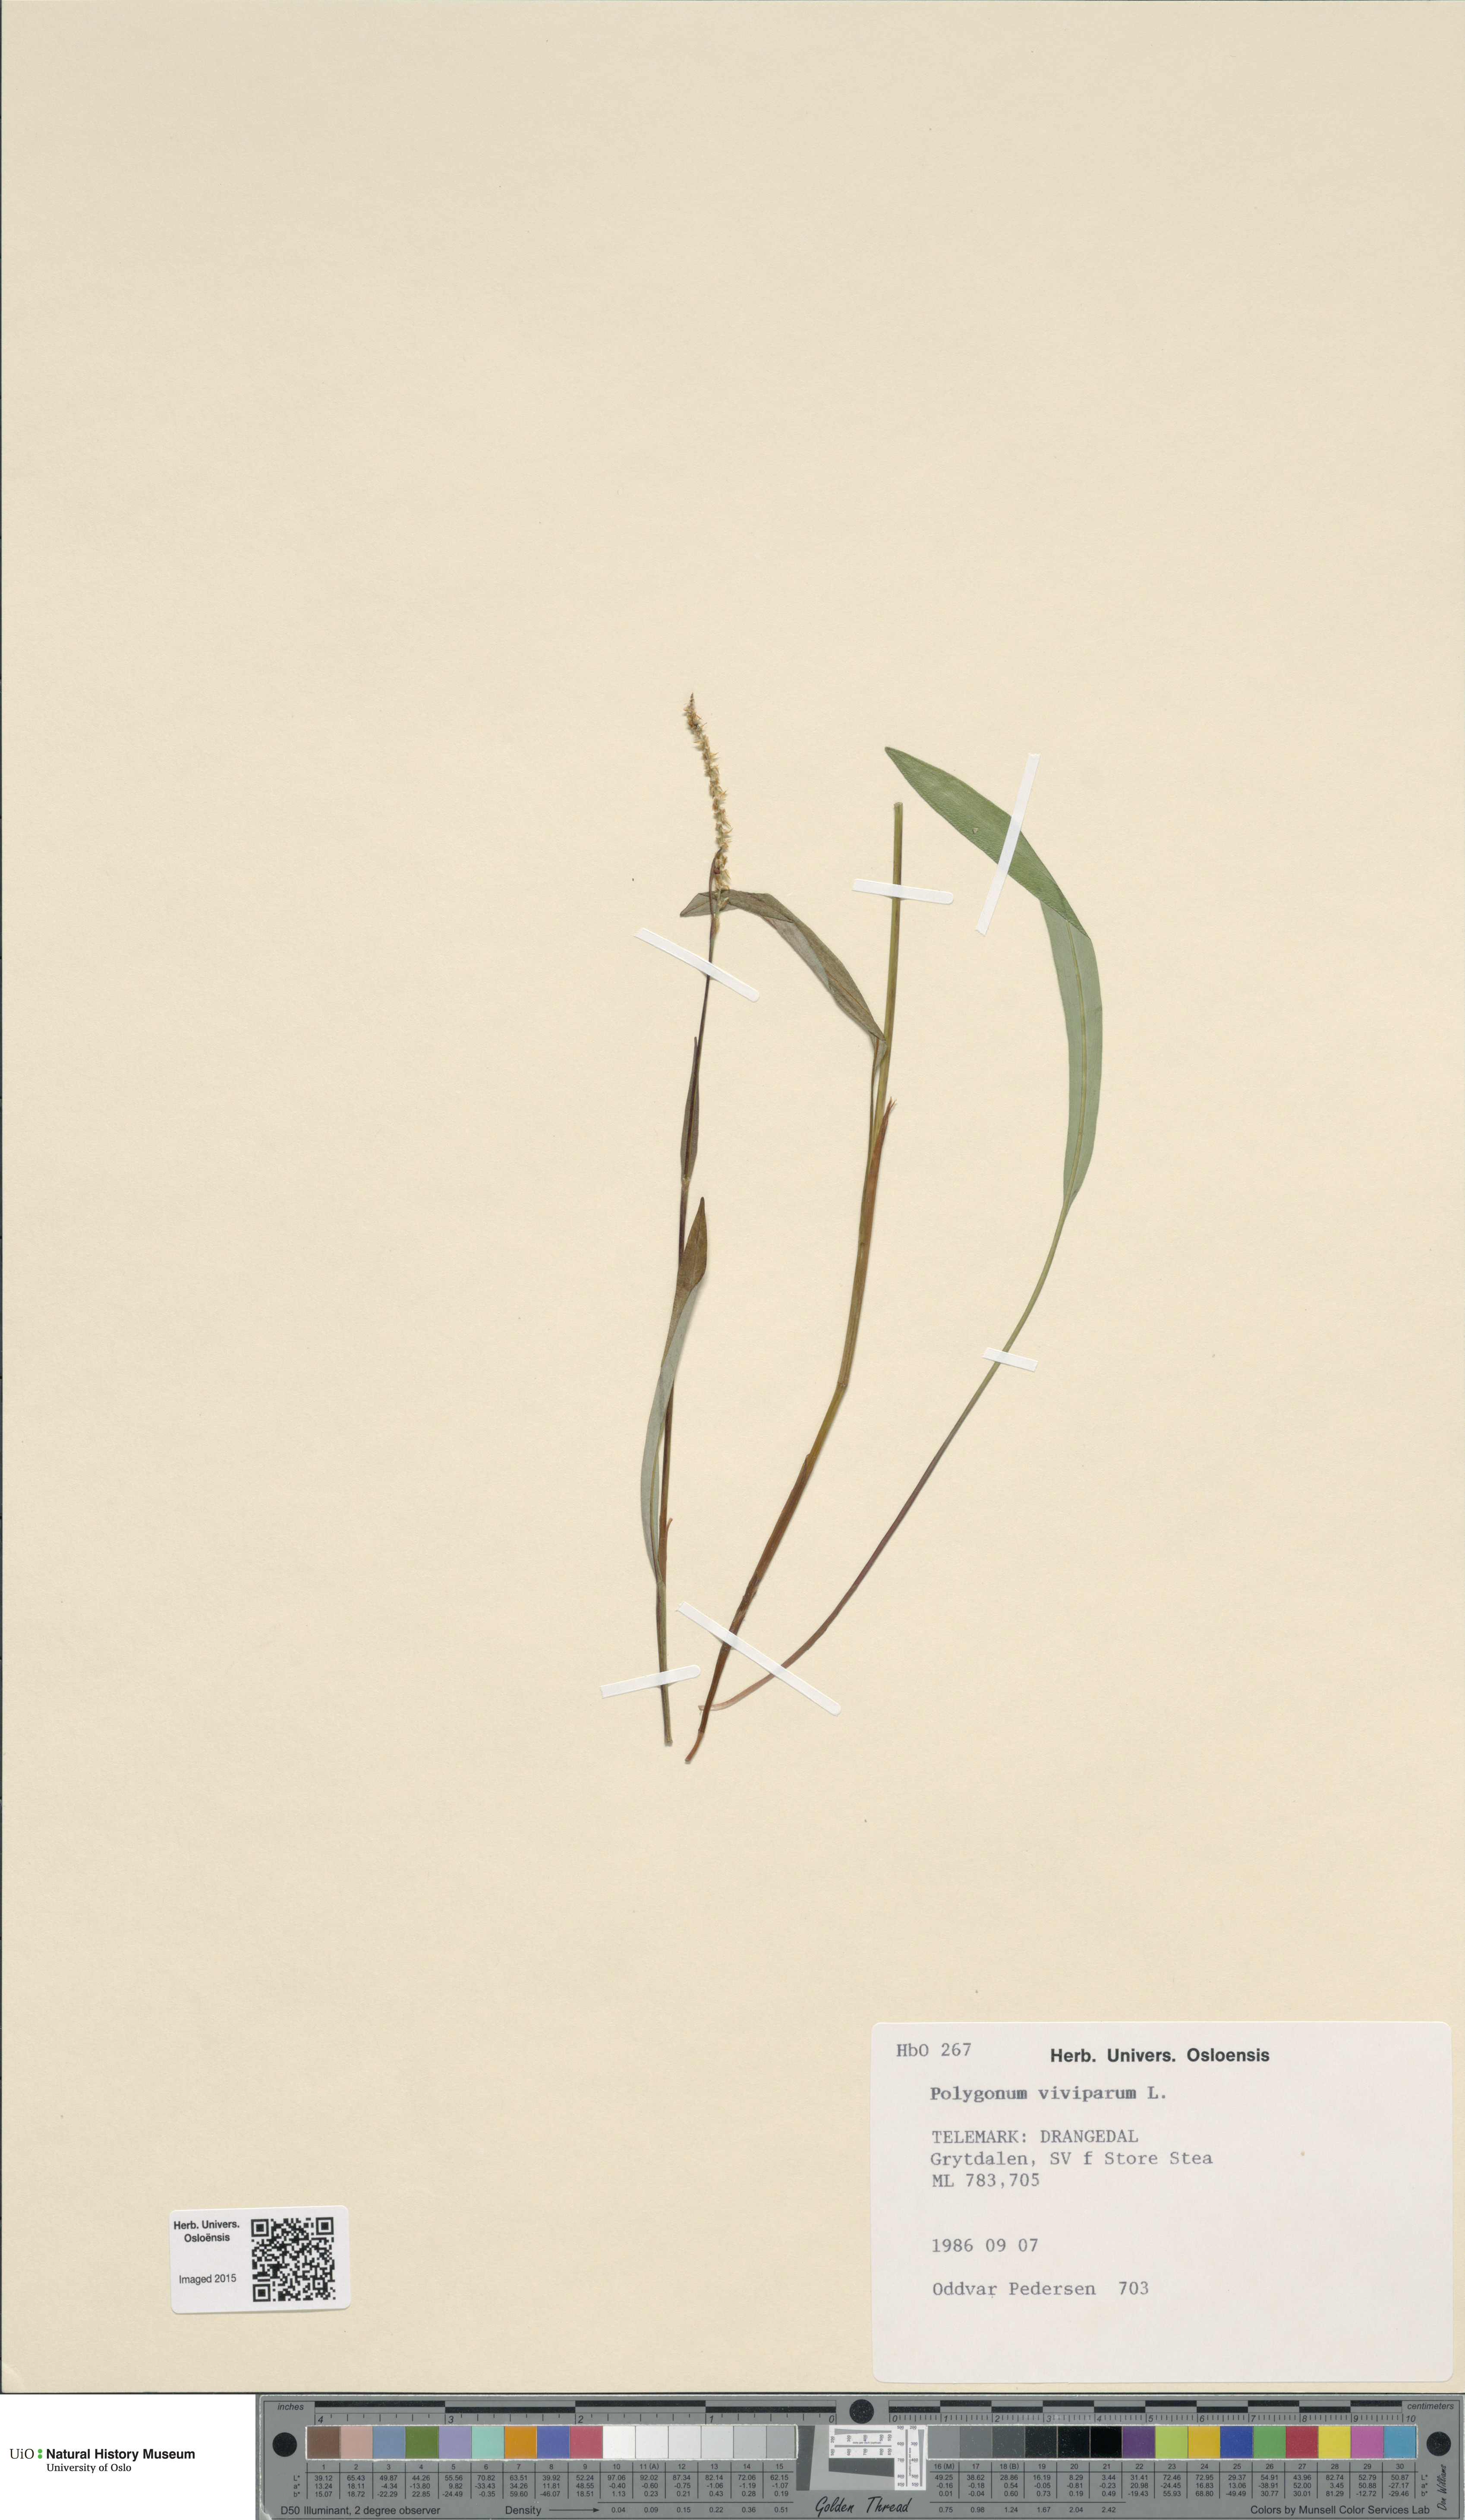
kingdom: Plantae
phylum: Tracheophyta
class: Magnoliopsida
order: Caryophyllales
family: Polygonaceae
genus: Bistorta
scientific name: Bistorta vivipara
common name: Alpine bistort
